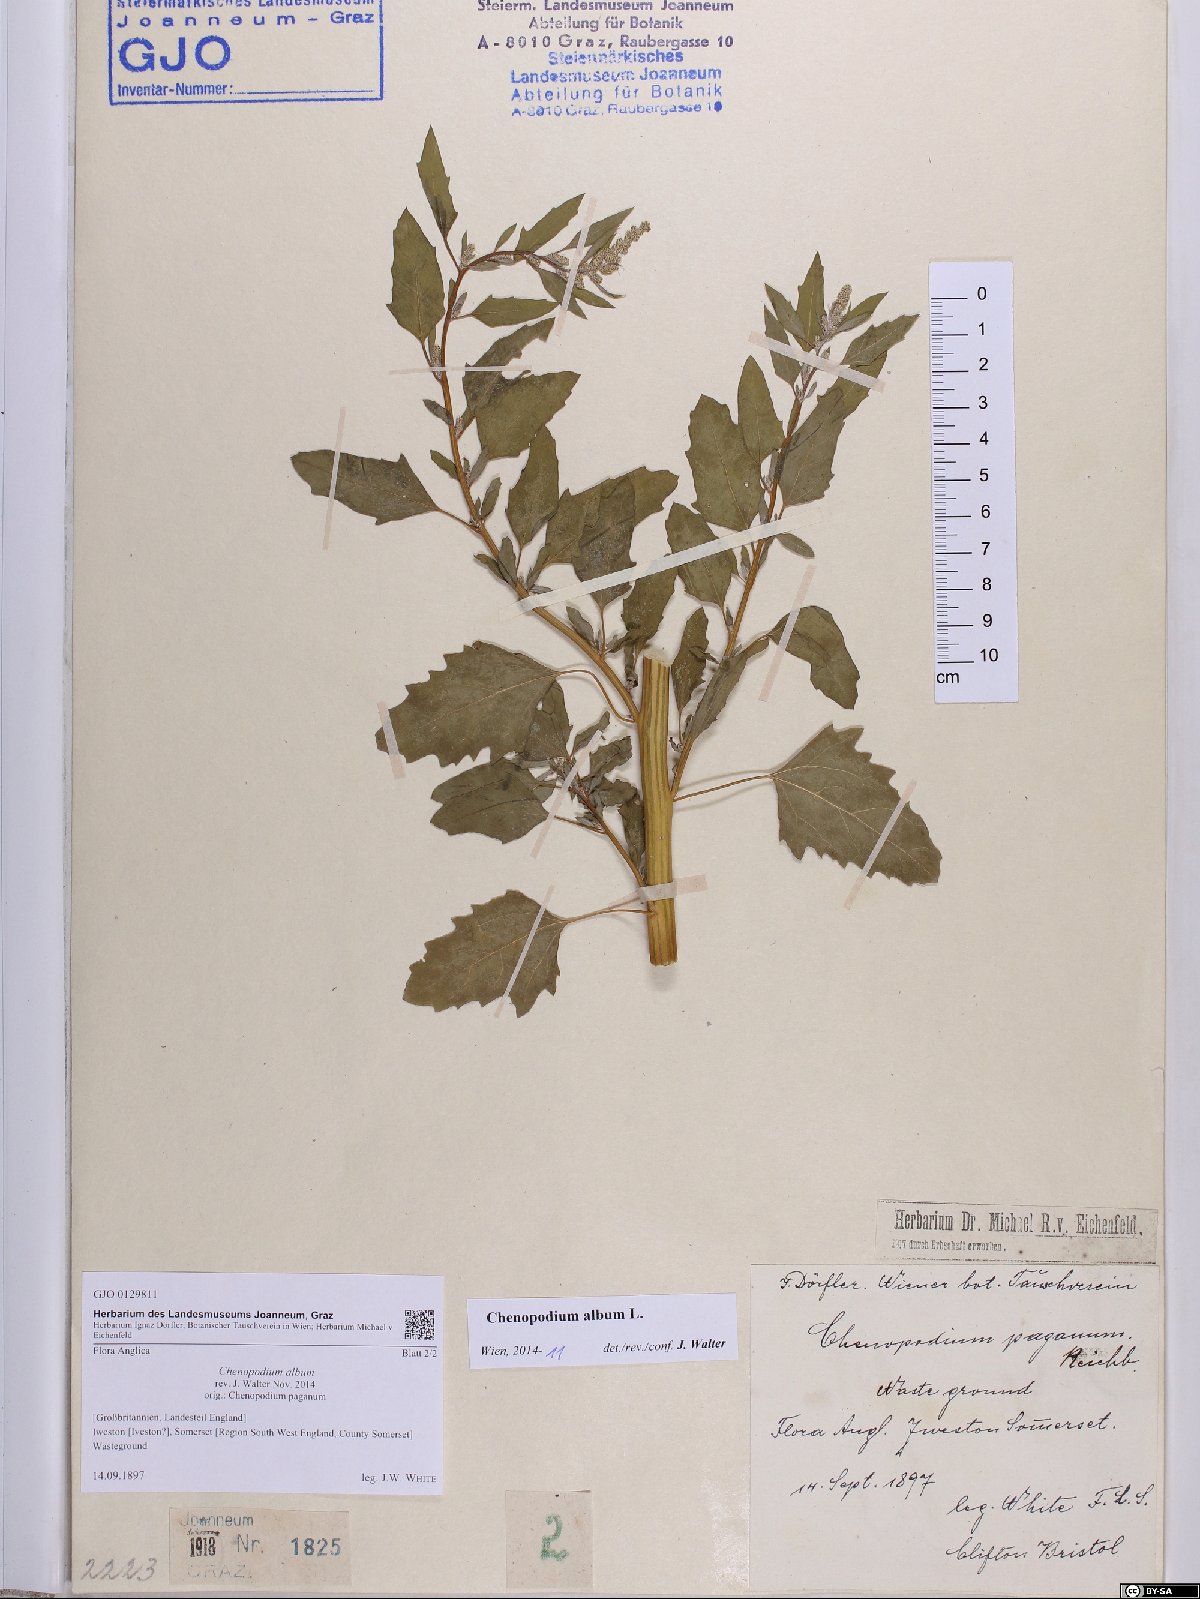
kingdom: Plantae
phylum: Tracheophyta
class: Magnoliopsida
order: Caryophyllales
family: Amaranthaceae
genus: Chenopodium
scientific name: Chenopodium album
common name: Fat-hen
